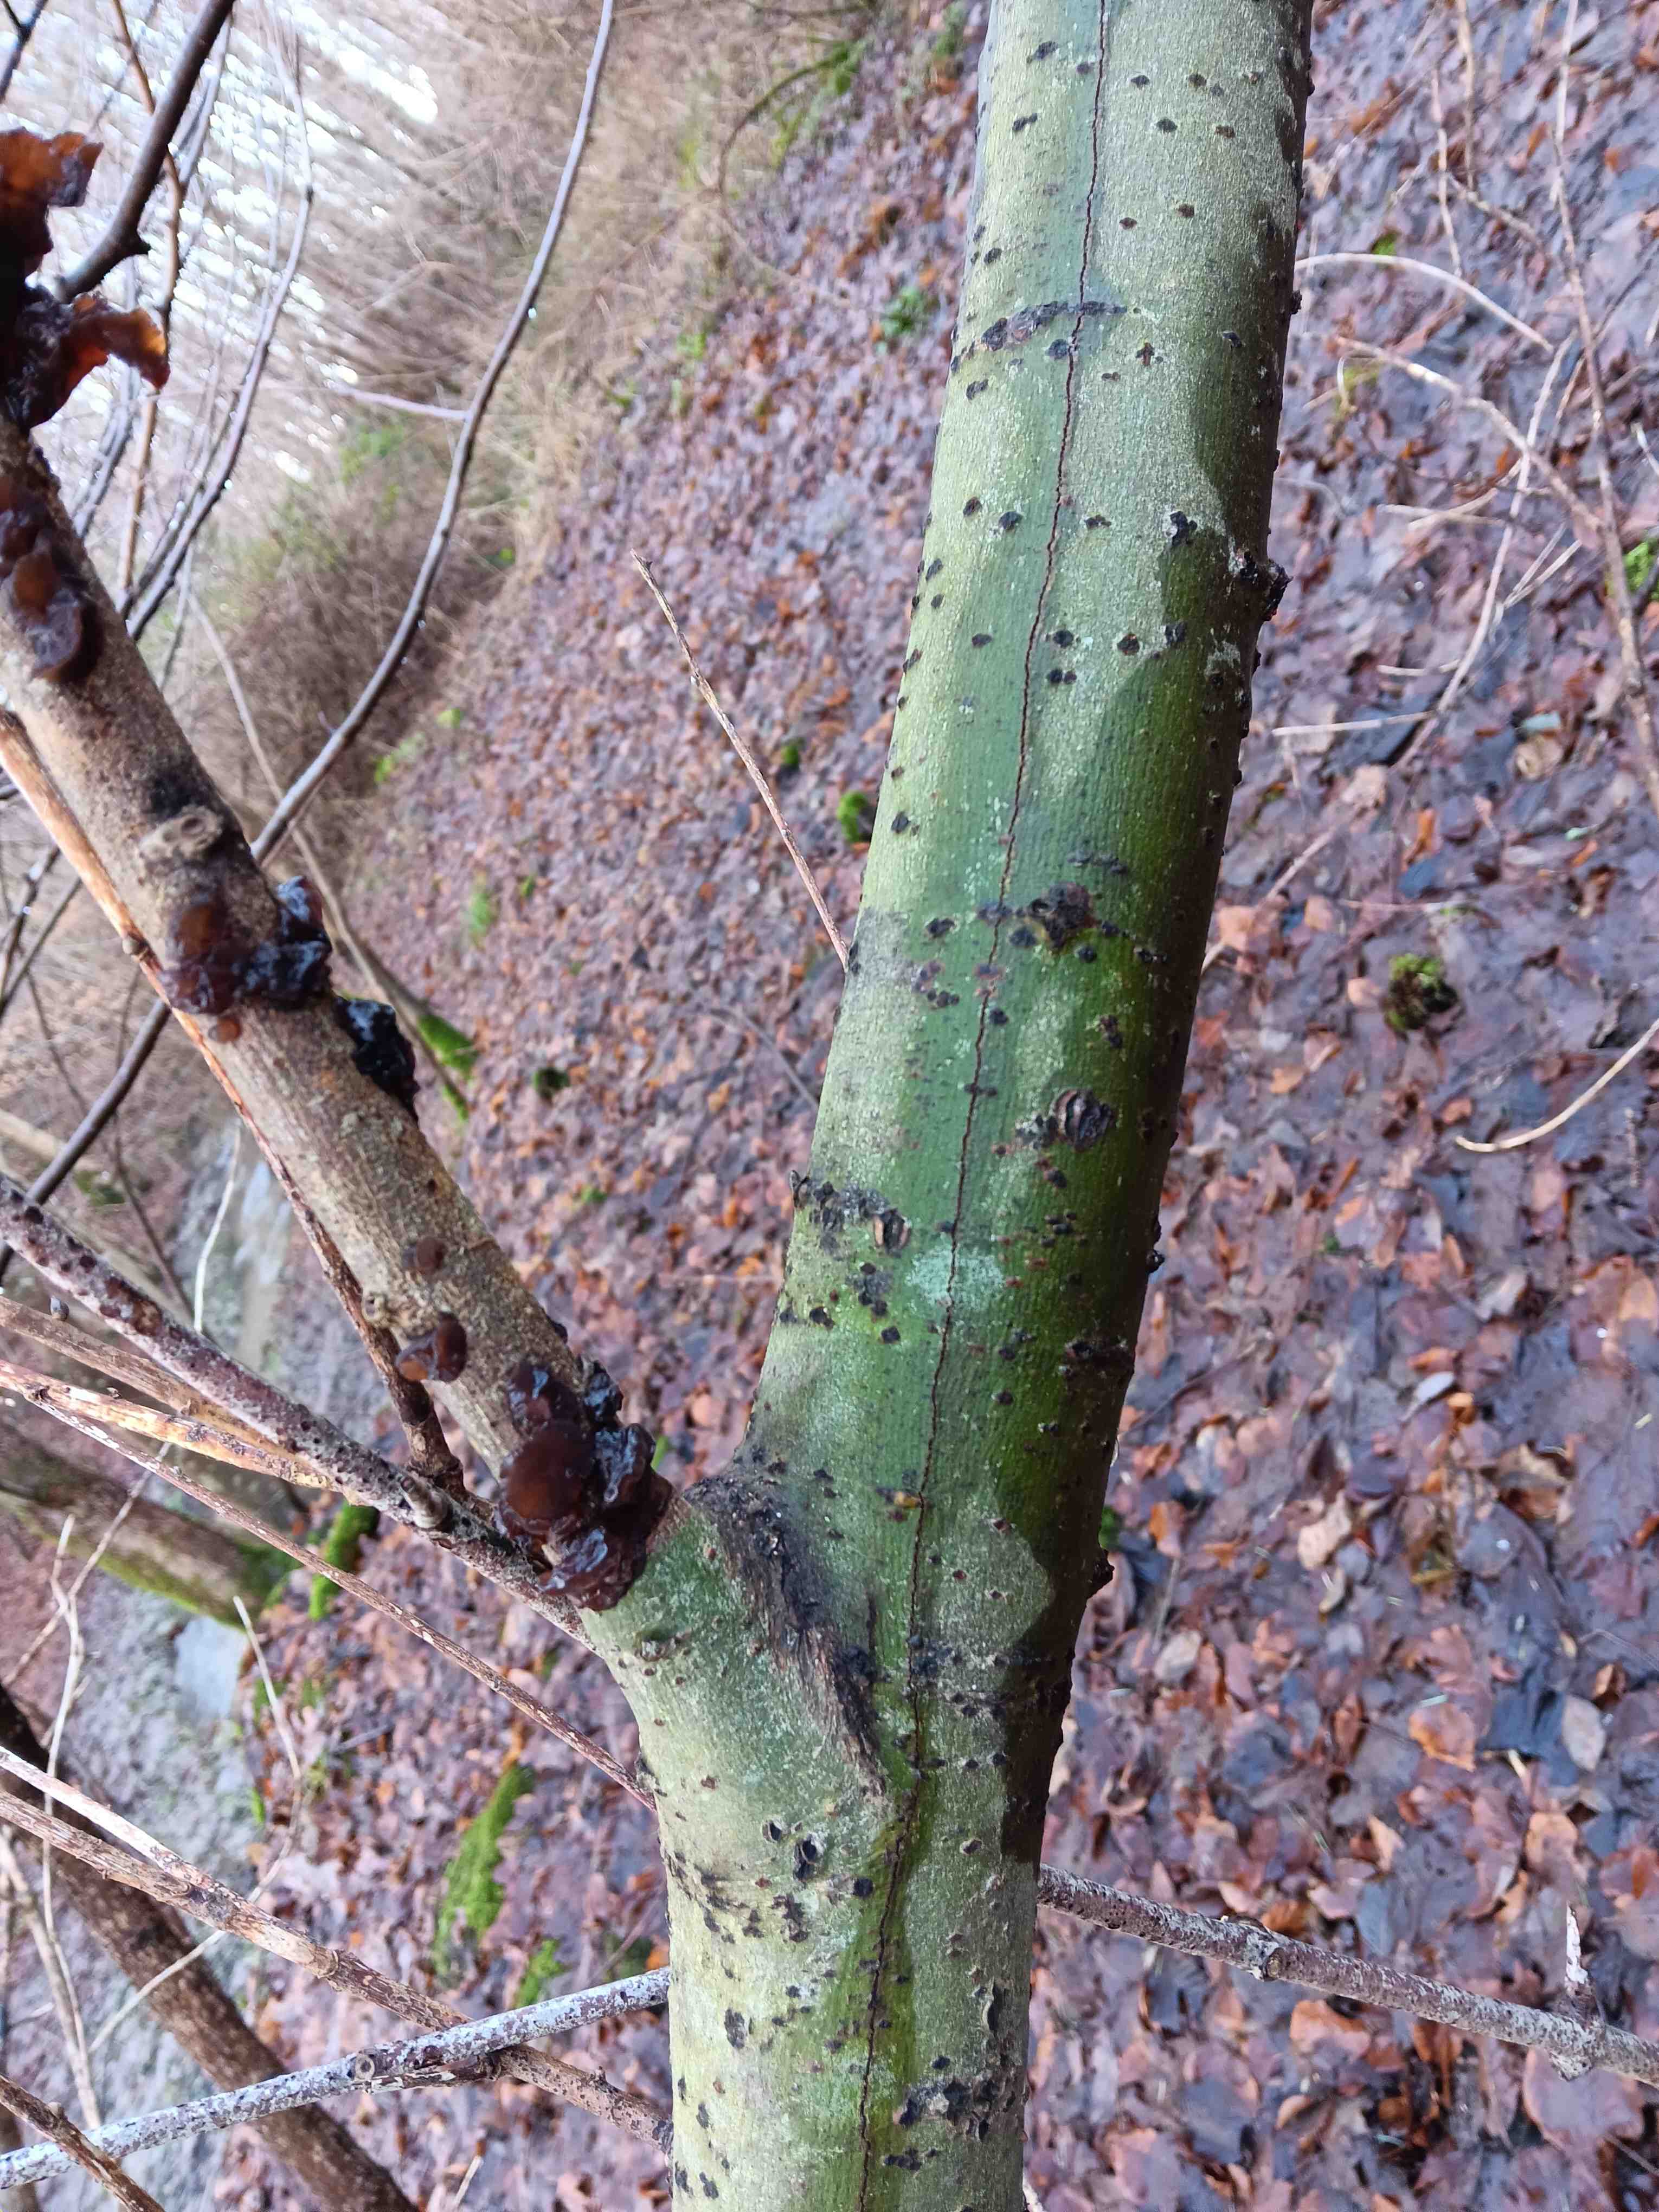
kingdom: Fungi
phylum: Basidiomycota
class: Agaricomycetes
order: Auriculariales
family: Auriculariaceae
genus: Exidia
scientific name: Exidia recisa
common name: pile-bævretop
